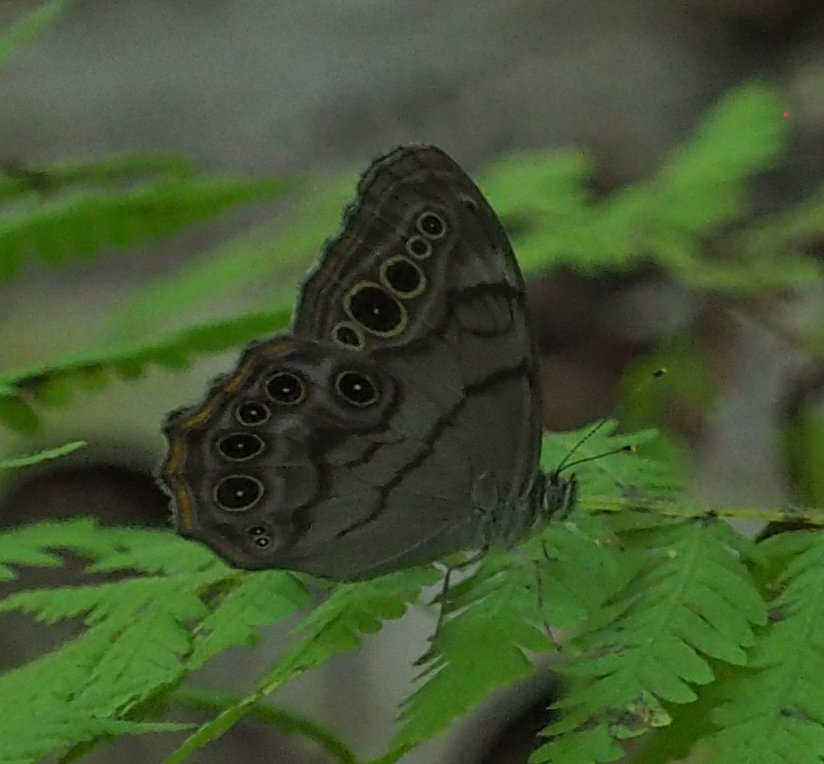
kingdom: Animalia
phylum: Arthropoda
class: Insecta
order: Lepidoptera
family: Nymphalidae
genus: Lethe
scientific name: Lethe anthedon
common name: Northern Pearly-Eye
